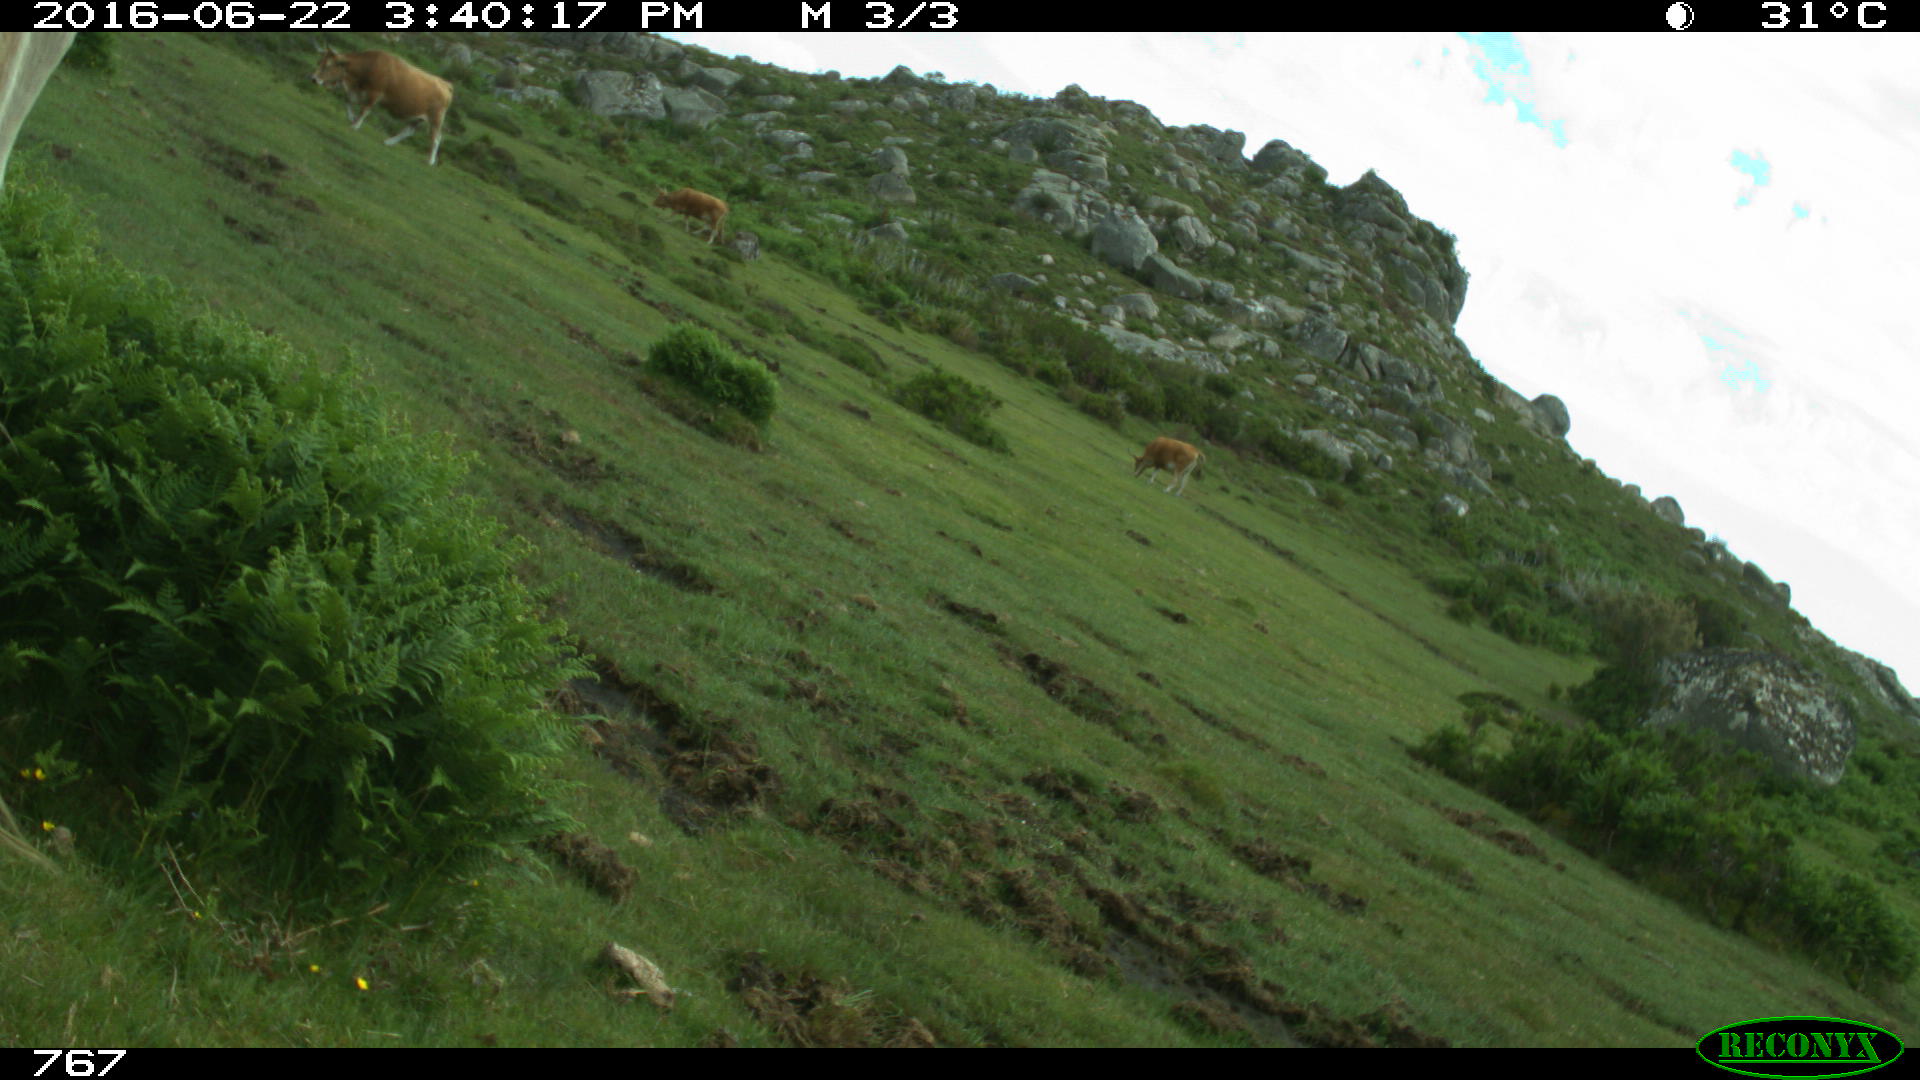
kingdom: Animalia
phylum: Chordata
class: Mammalia
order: Artiodactyla
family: Bovidae
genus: Bos
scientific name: Bos taurus
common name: Domesticated cattle
